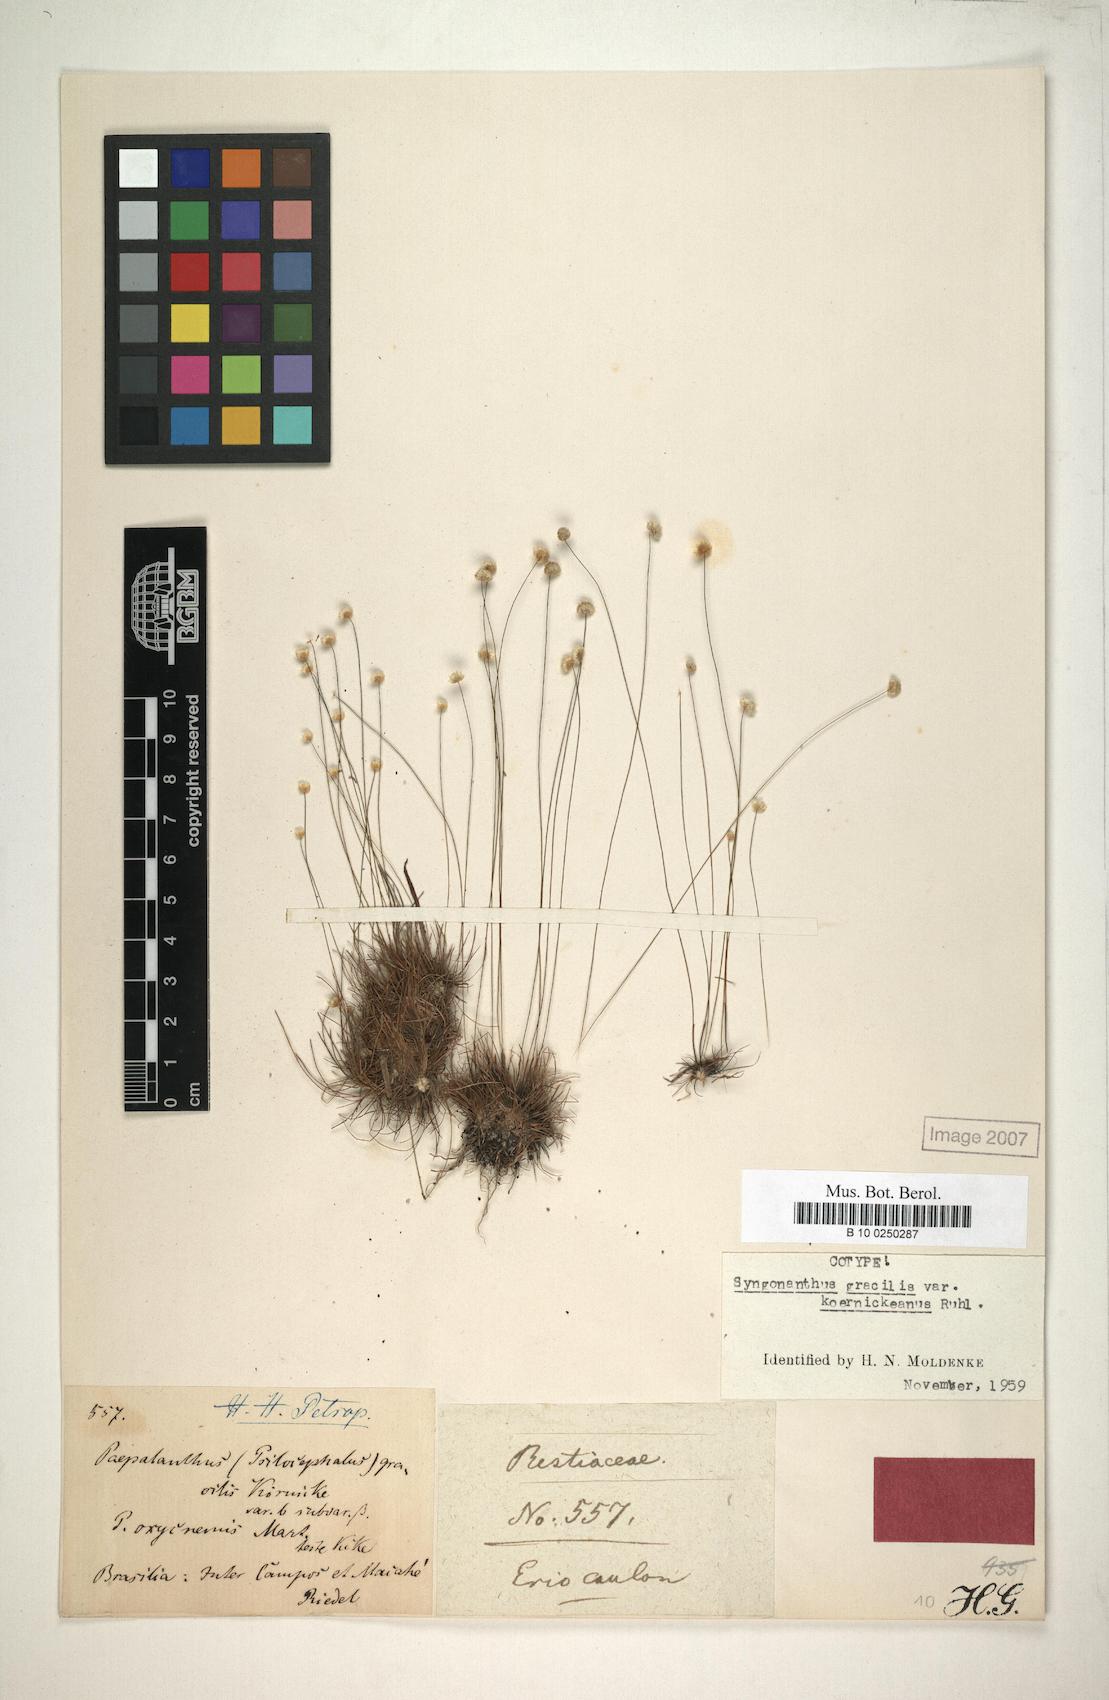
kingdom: Plantae
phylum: Tracheophyta
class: Liliopsida
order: Poales
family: Eriocaulaceae
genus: Syngonanthus
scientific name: Syngonanthus gracilis
